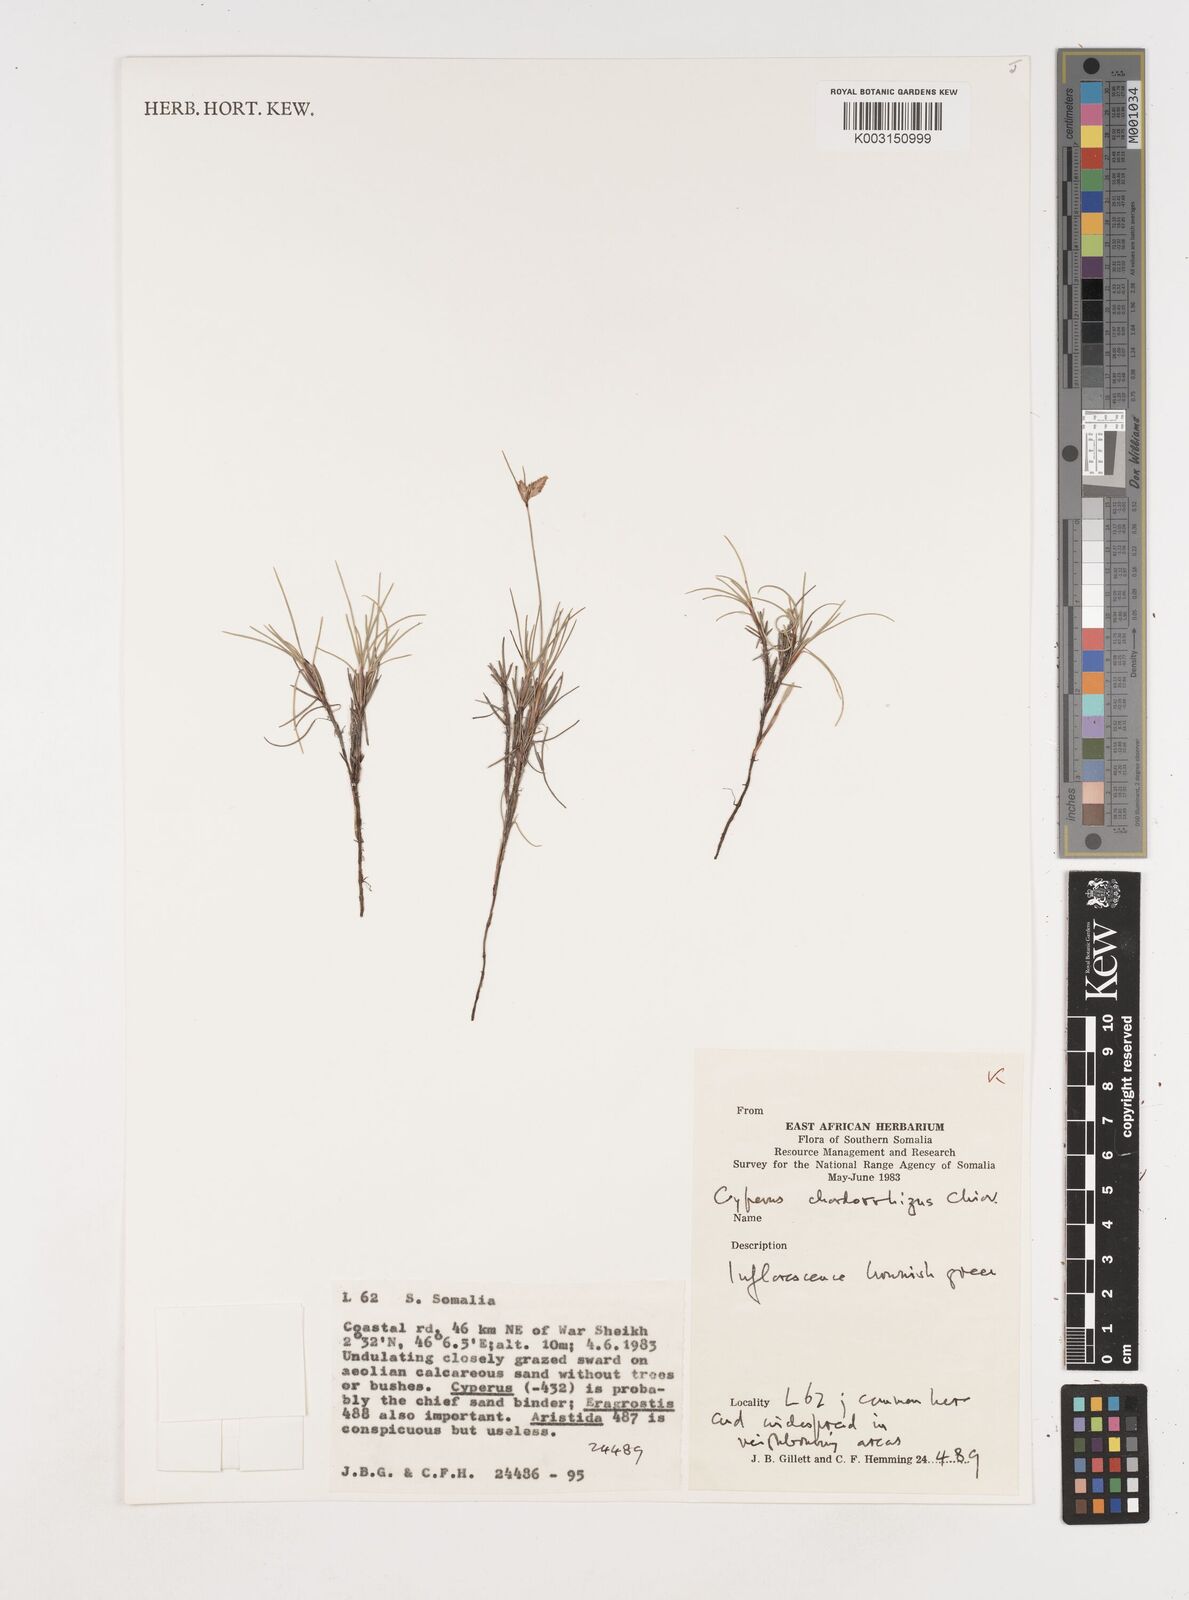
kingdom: Plantae
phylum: Tracheophyta
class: Liliopsida
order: Poales
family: Cyperaceae
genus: Cyperus
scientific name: Cyperus chordorrhizus
